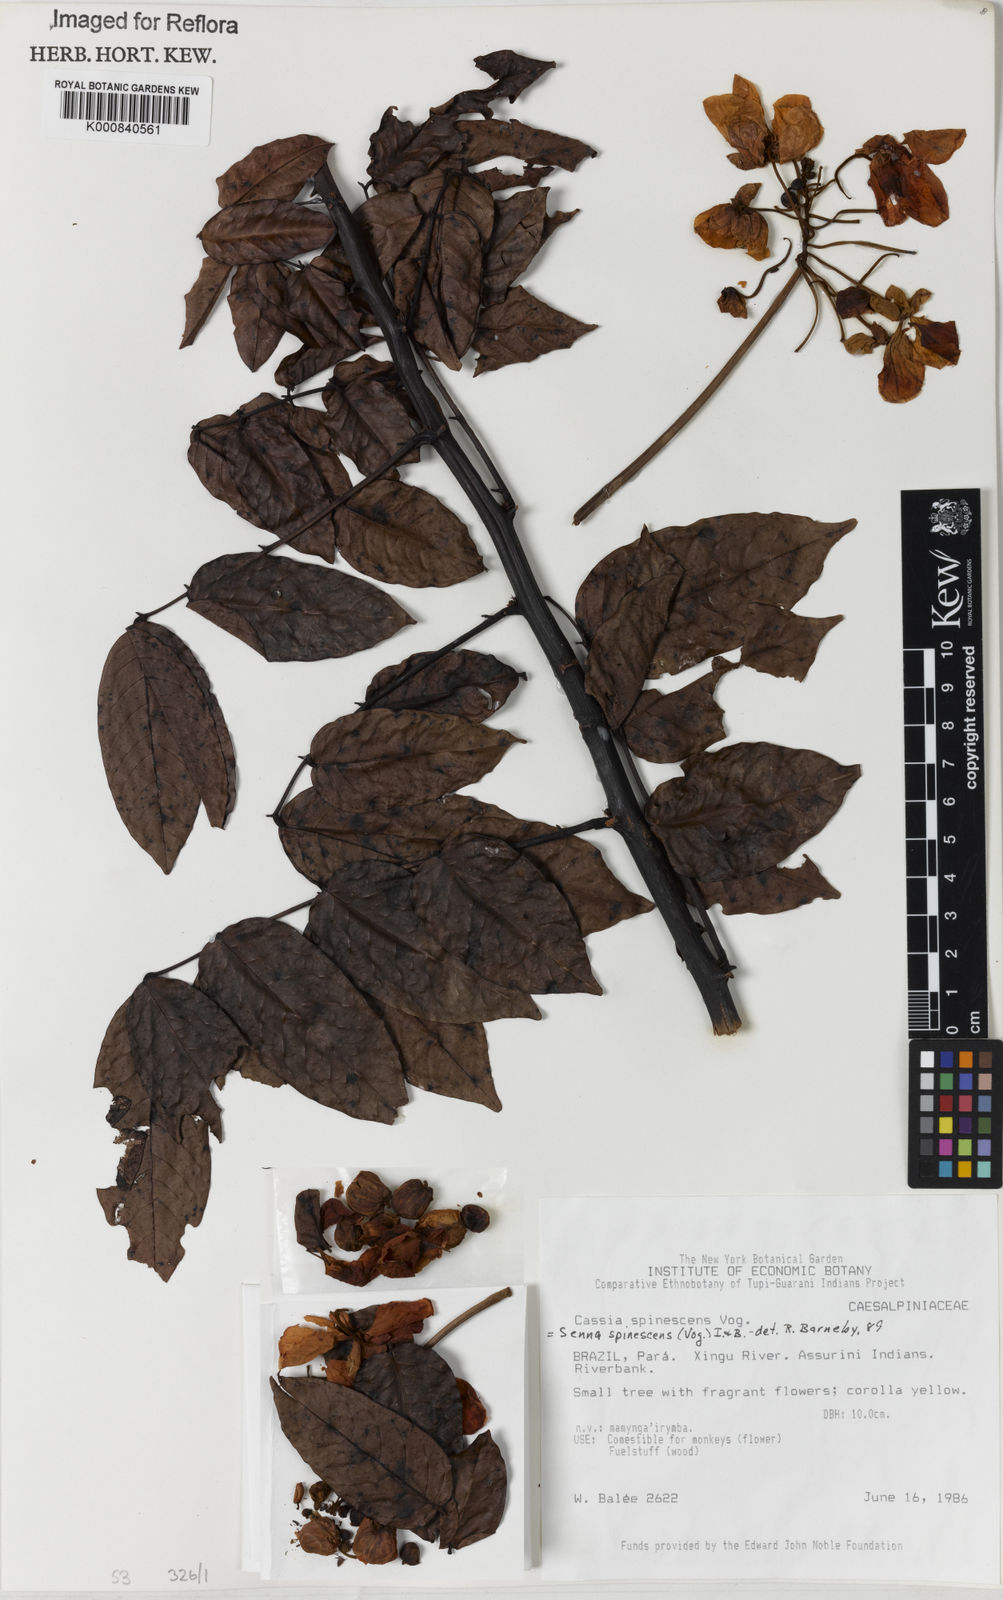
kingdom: Plantae
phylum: Tracheophyta
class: Magnoliopsida
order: Fabales
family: Fabaceae
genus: Senna
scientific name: Senna spinescens
